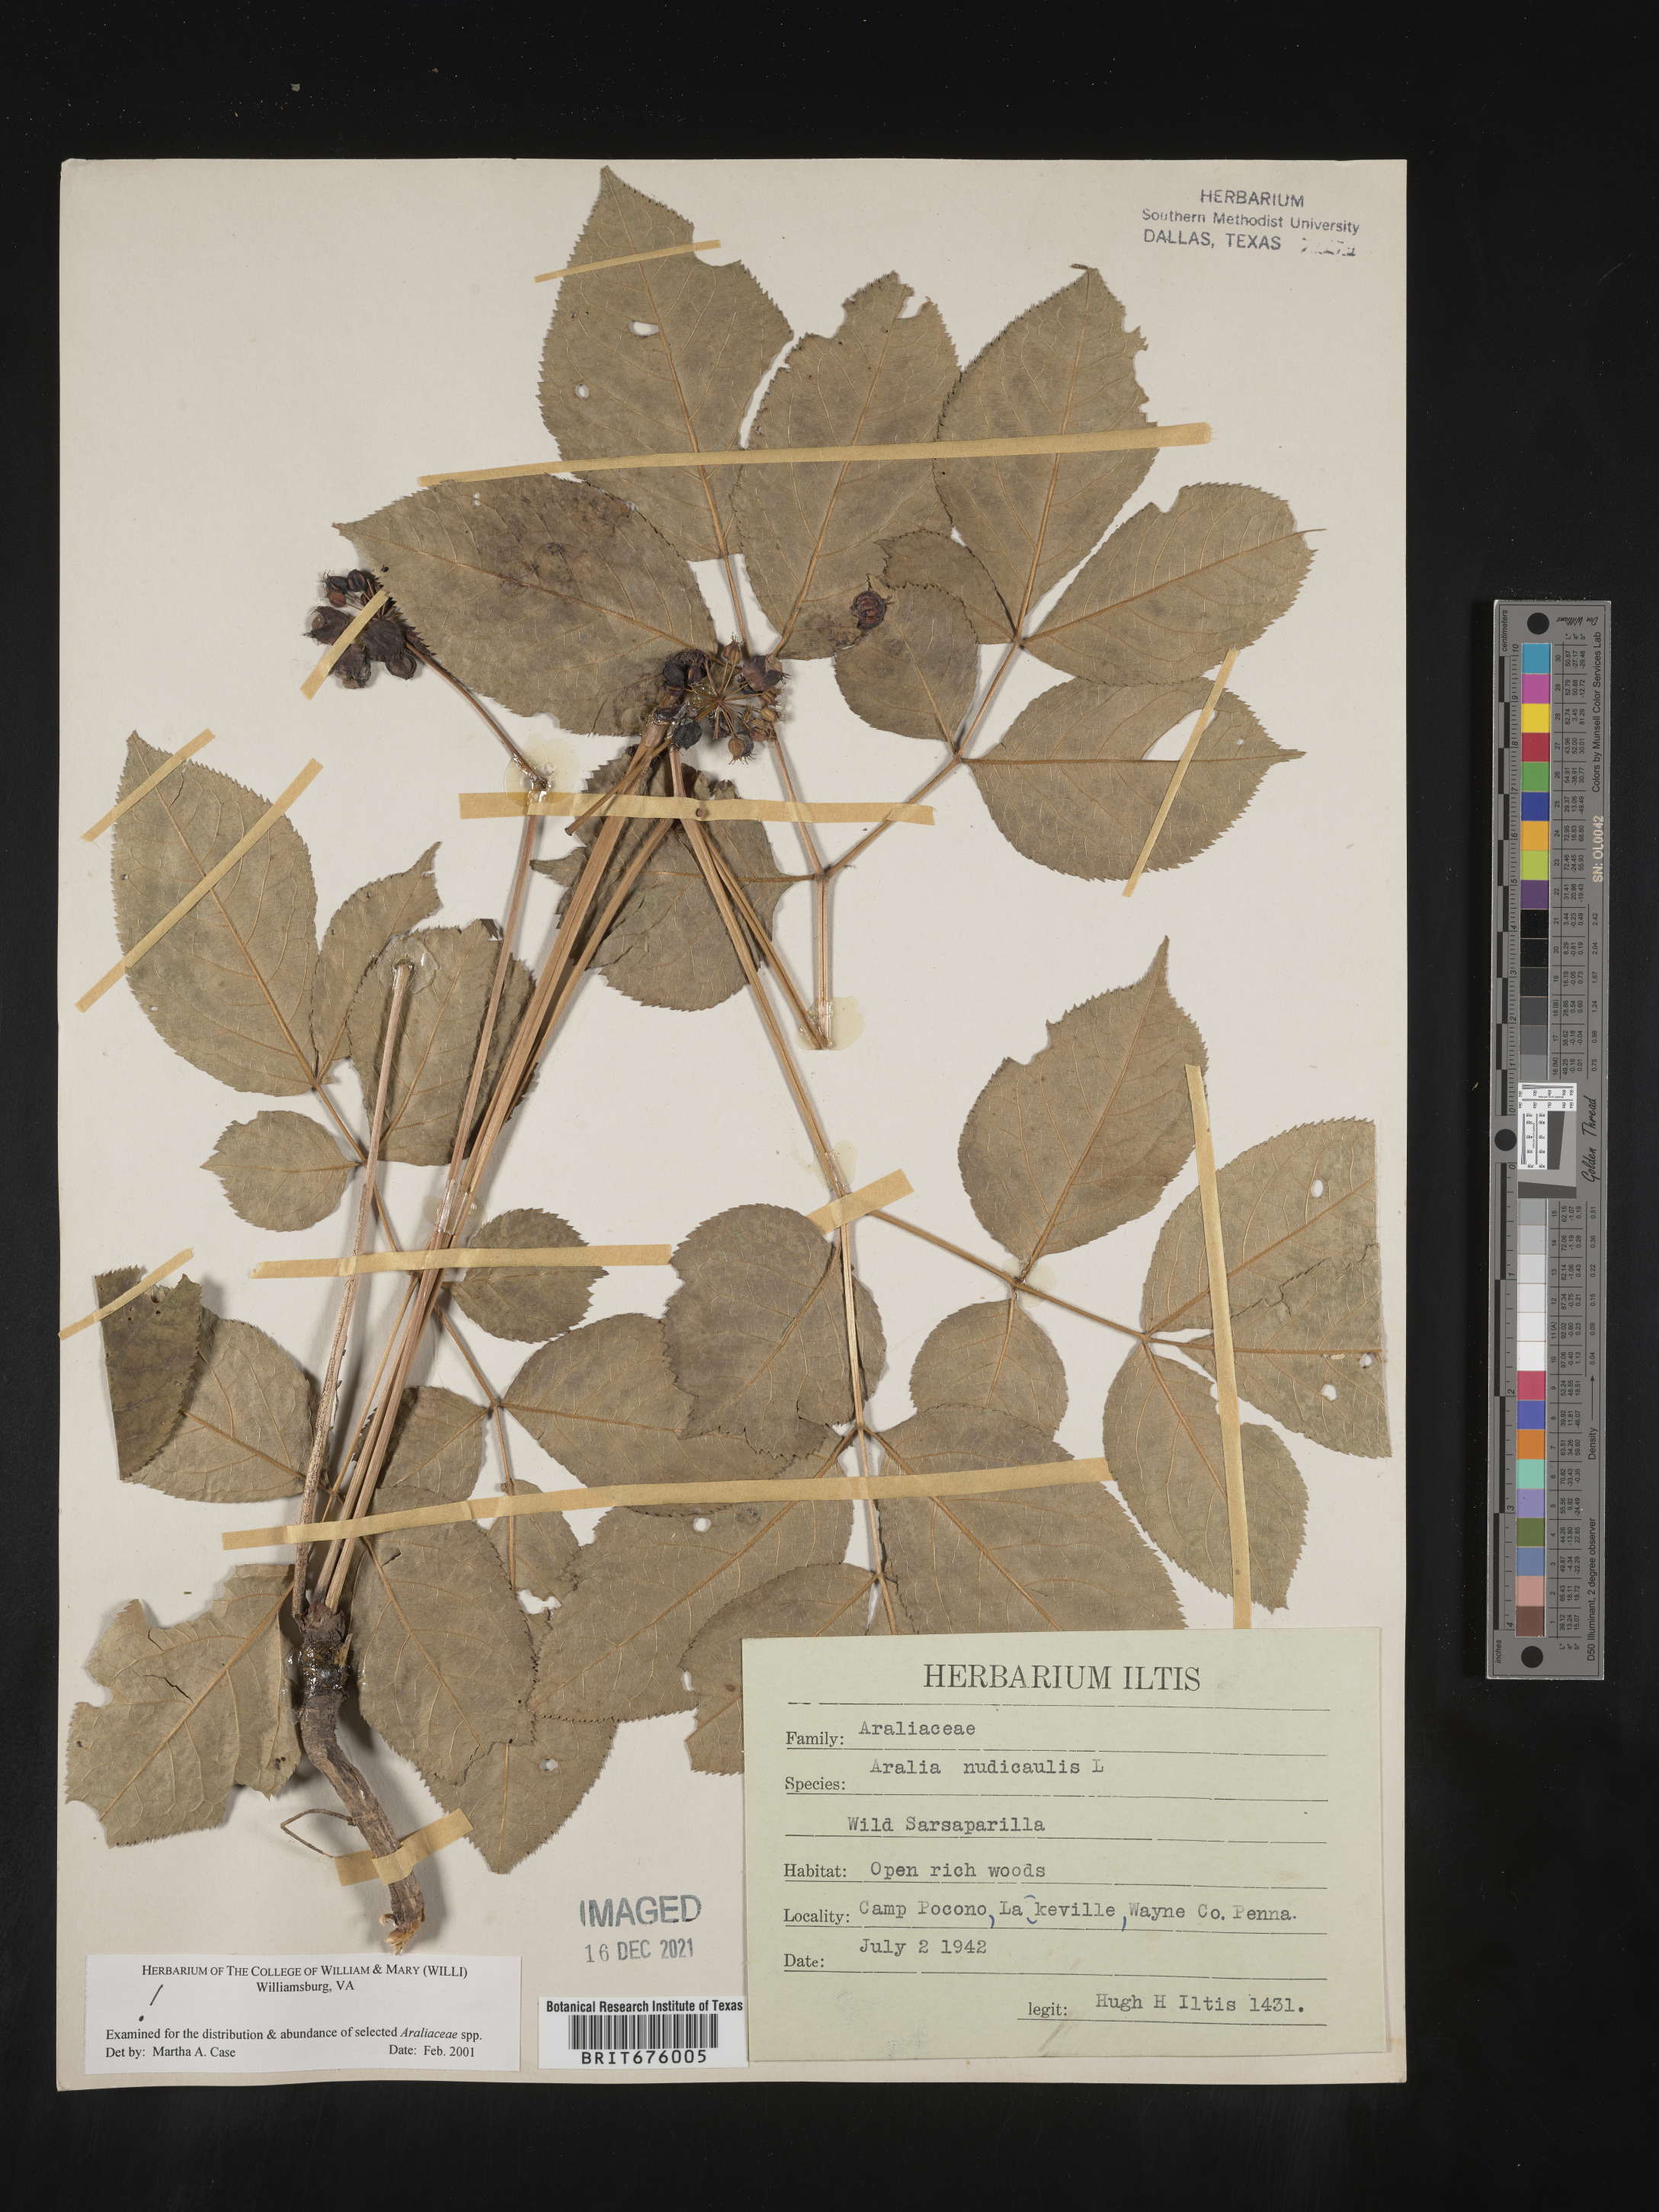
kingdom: Plantae
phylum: Tracheophyta
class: Magnoliopsida
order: Apiales
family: Araliaceae
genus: Aralia
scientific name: Aralia nudicaulis
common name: Wild sarsaparilla
